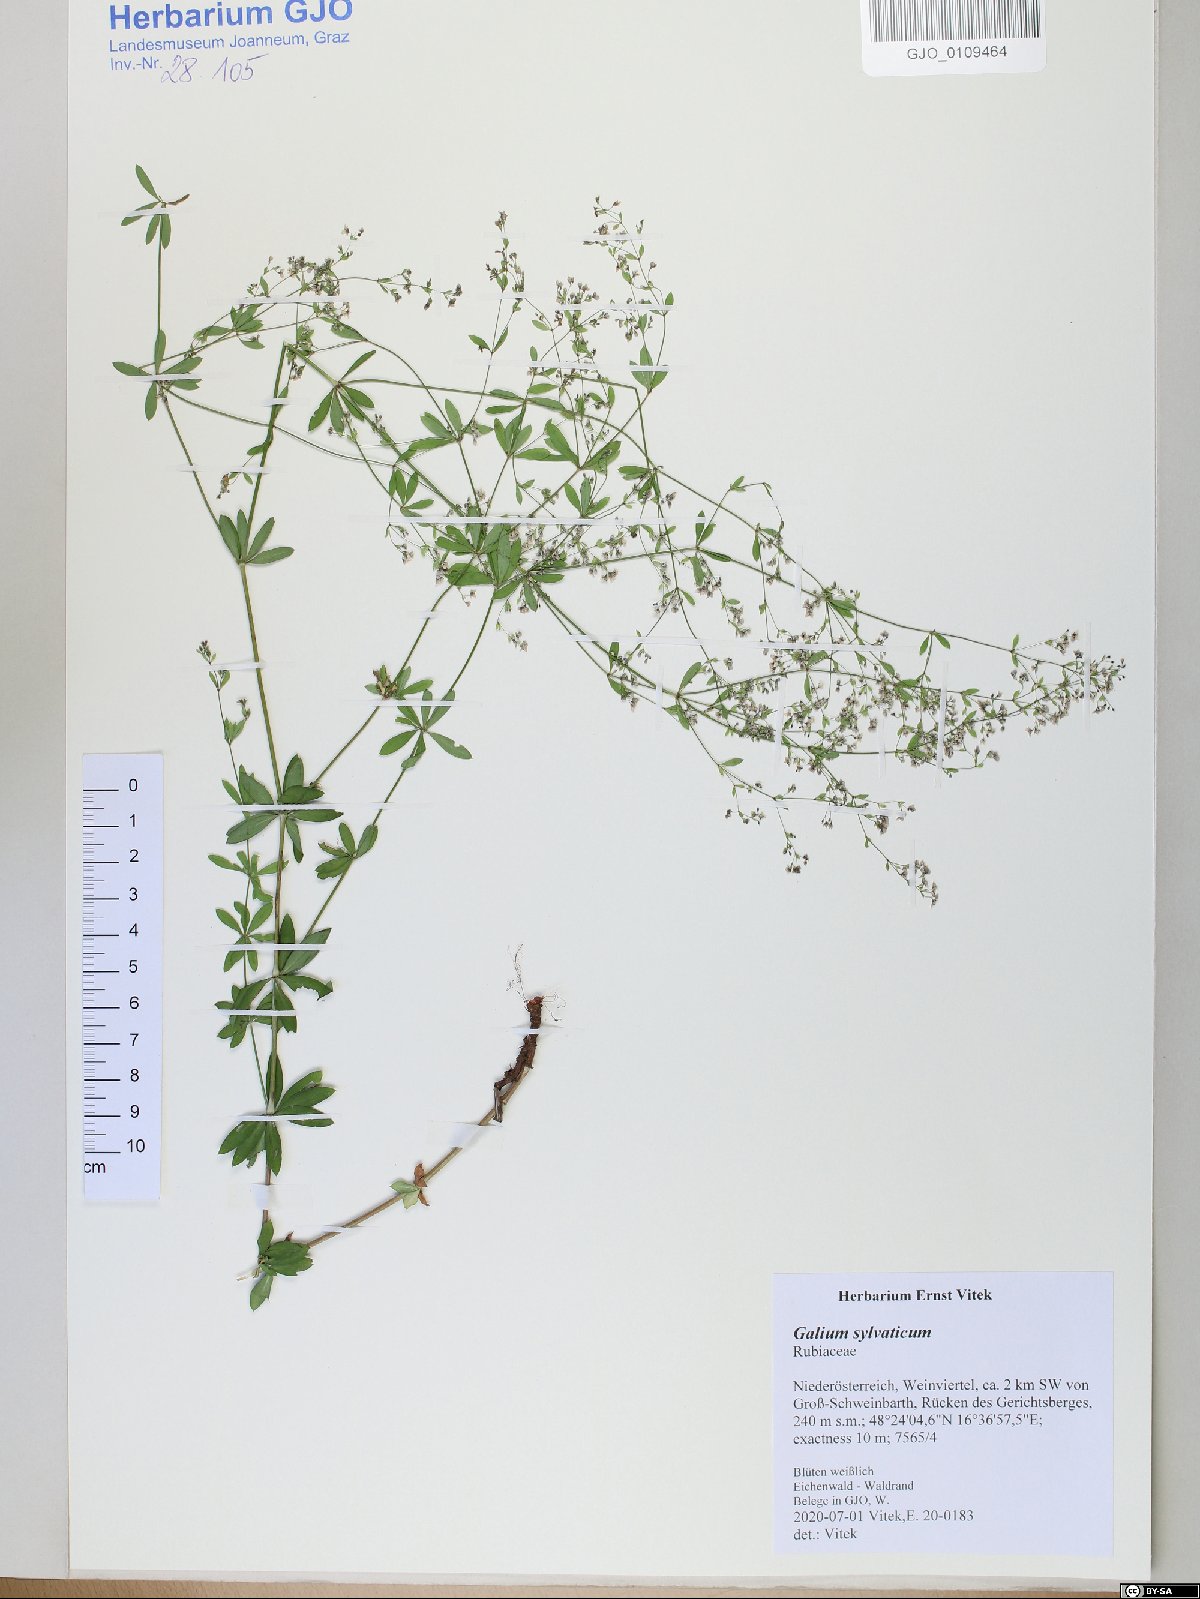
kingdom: Plantae
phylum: Tracheophyta
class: Magnoliopsida
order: Gentianales
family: Rubiaceae
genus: Galium
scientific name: Galium sylvaticum
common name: Wood bedstraw
